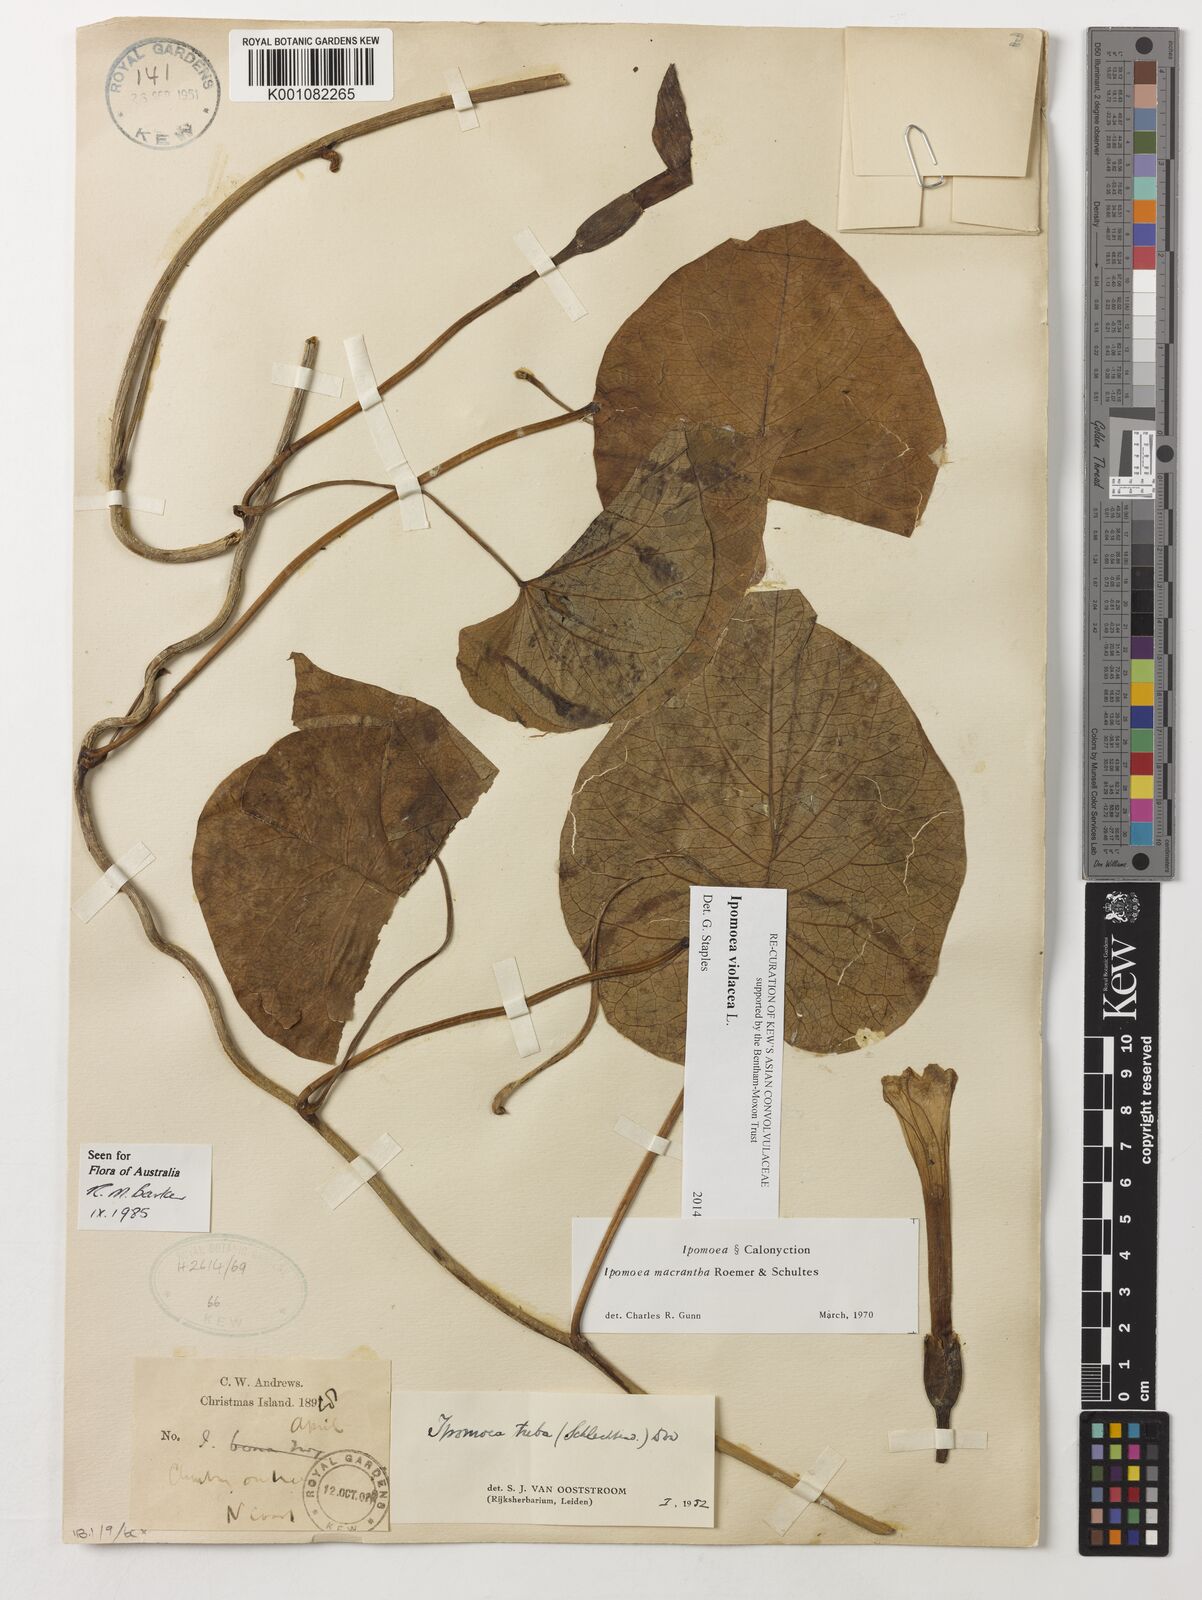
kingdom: Plantae
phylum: Tracheophyta
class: Magnoliopsida
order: Solanales
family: Convolvulaceae
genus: Ipomoea
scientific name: Ipomoea violacea
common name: Beach moonflower
